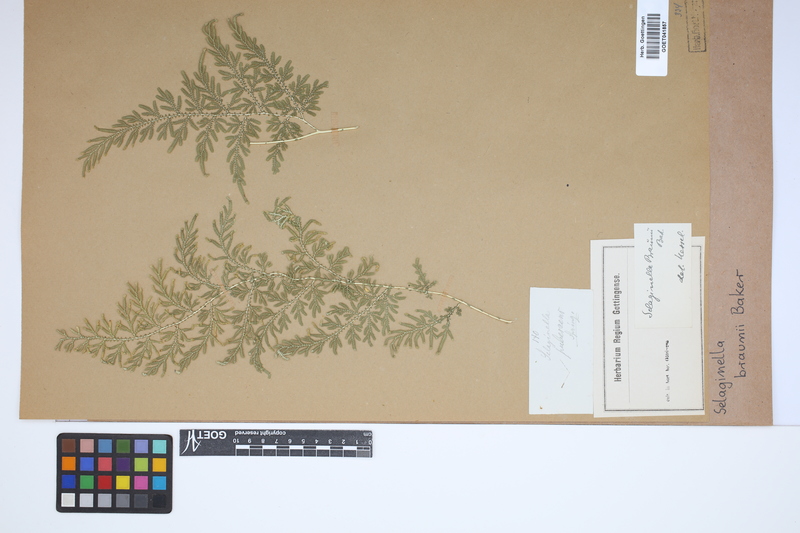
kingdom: Plantae
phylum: Tracheophyta
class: Lycopodiopsida
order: Selaginellales
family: Selaginellaceae
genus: Selaginella
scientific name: Selaginella braunii
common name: Braun's spikemoss
